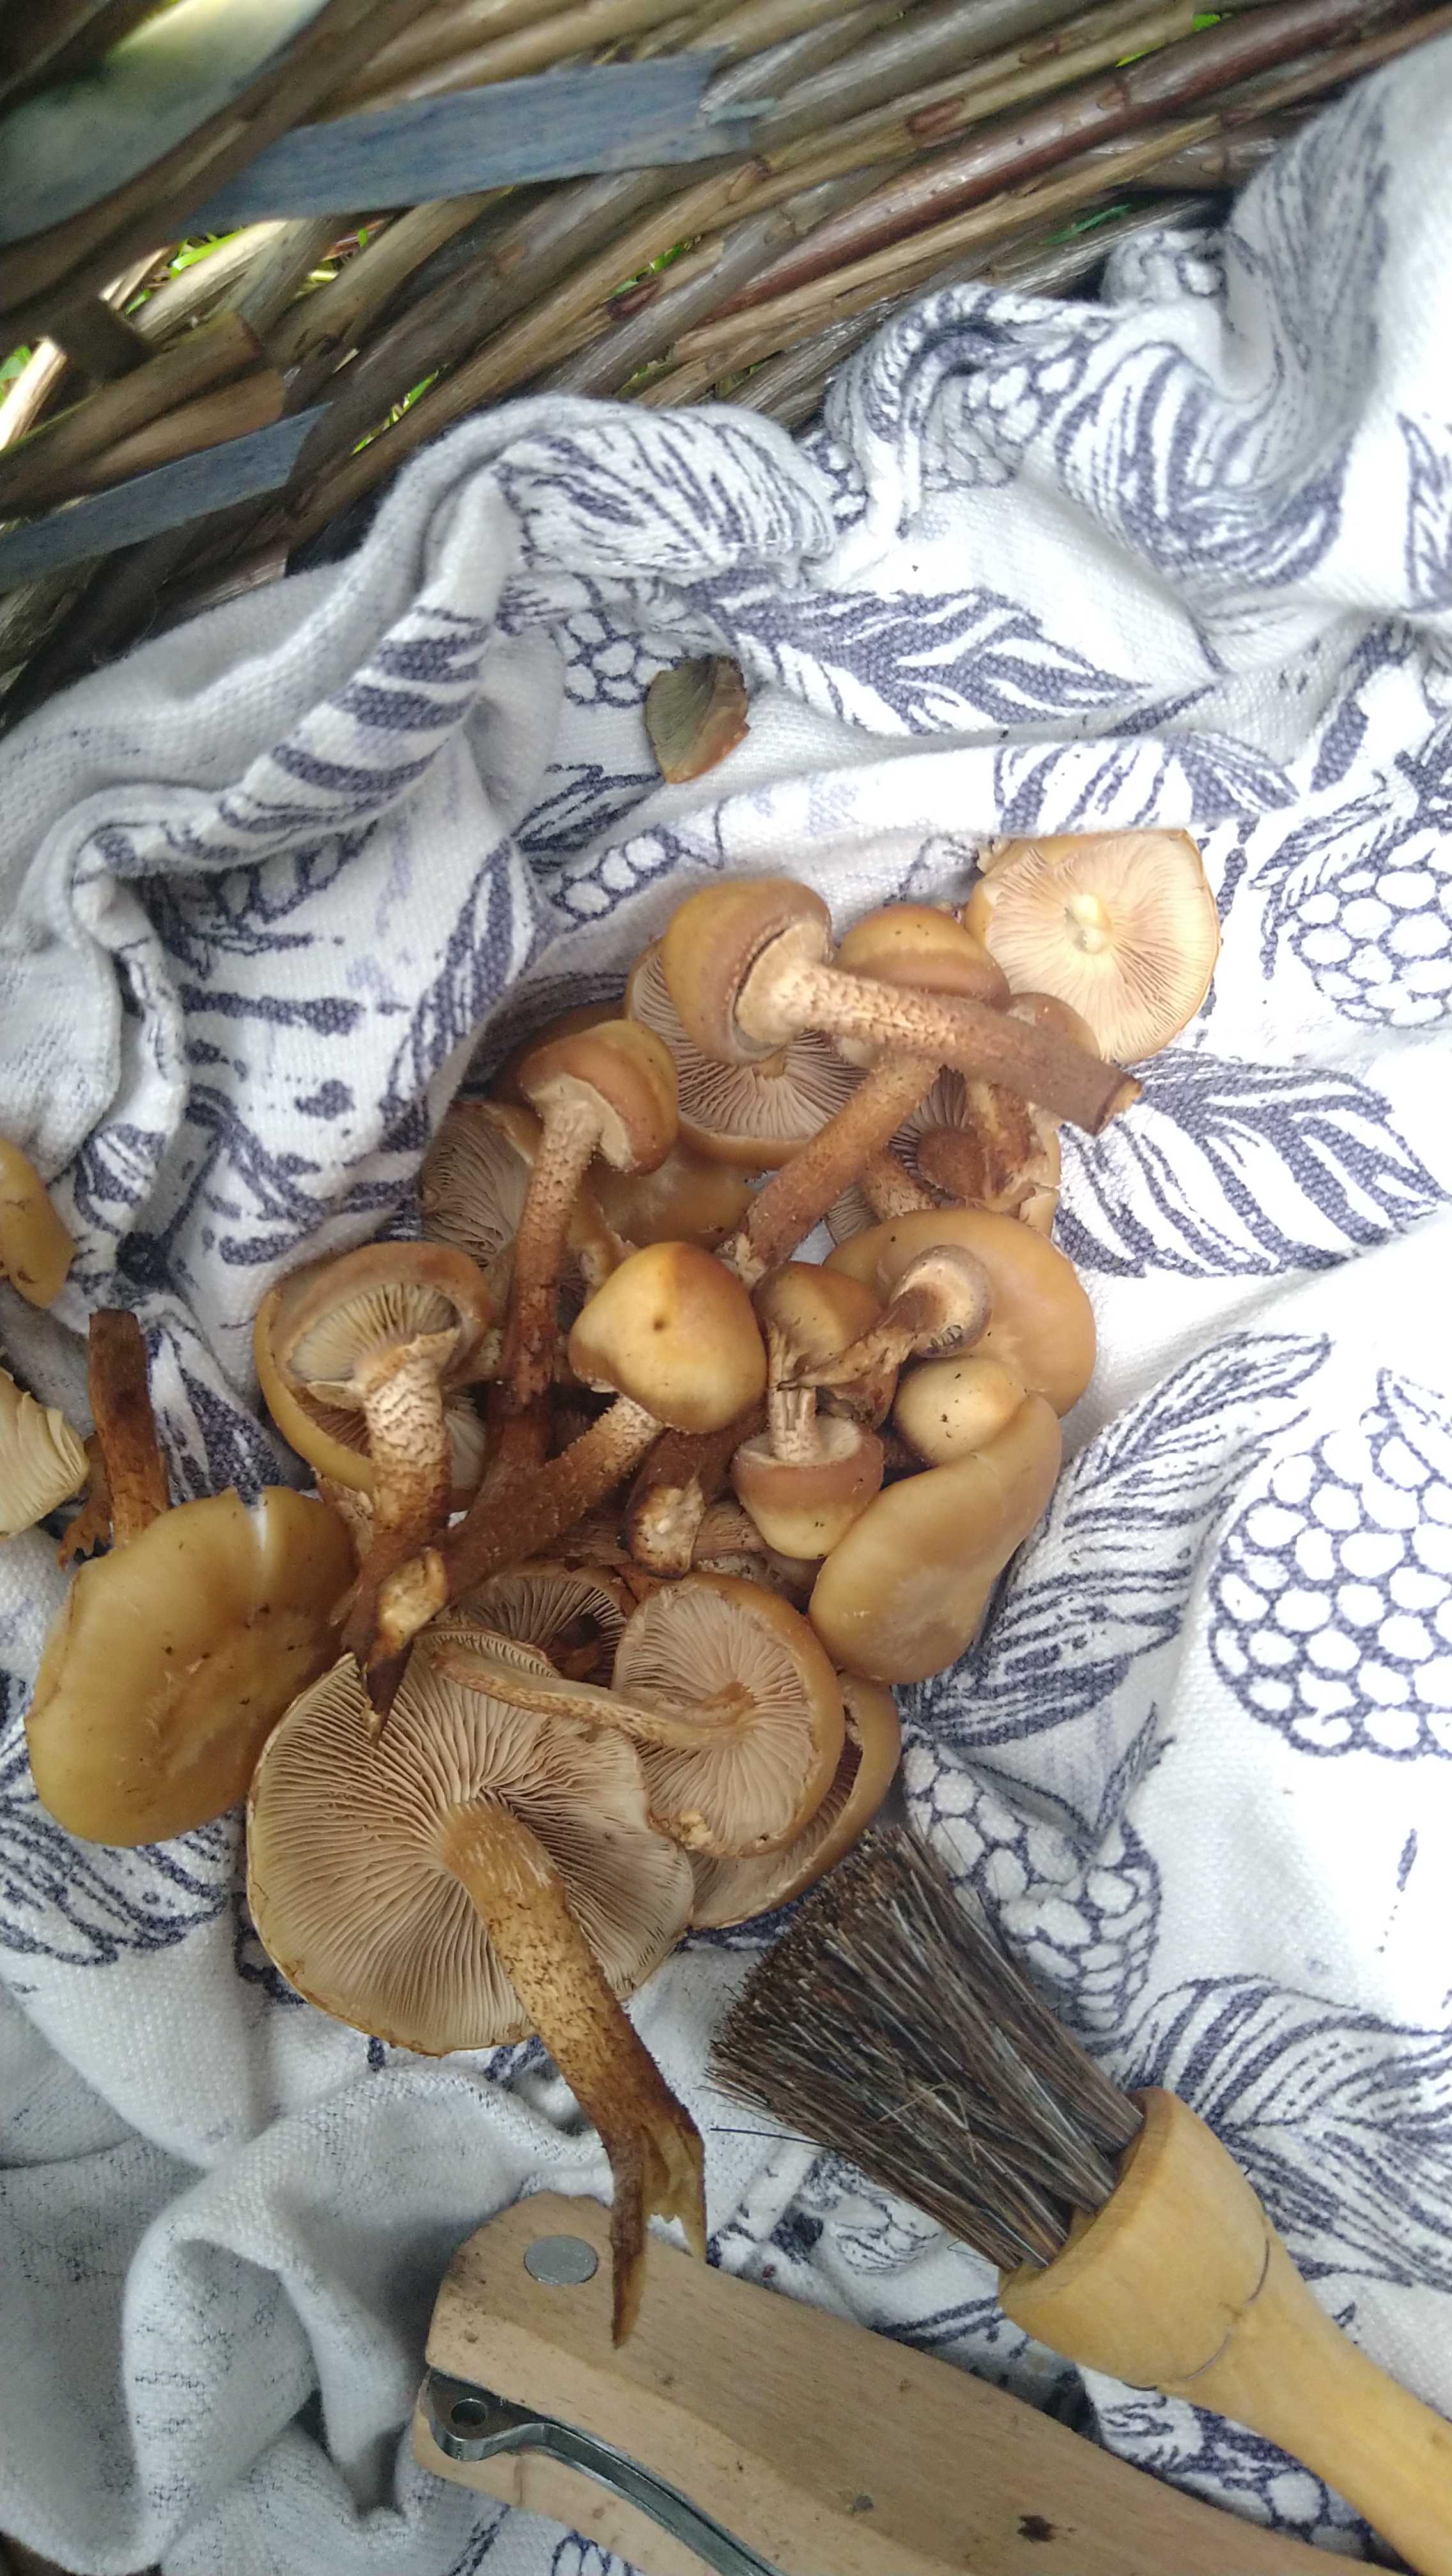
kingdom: Fungi
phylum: Basidiomycota
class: Agaricomycetes
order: Agaricales
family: Strophariaceae
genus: Kuehneromyces
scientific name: Kuehneromyces mutabilis
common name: foranderlig skælhat
